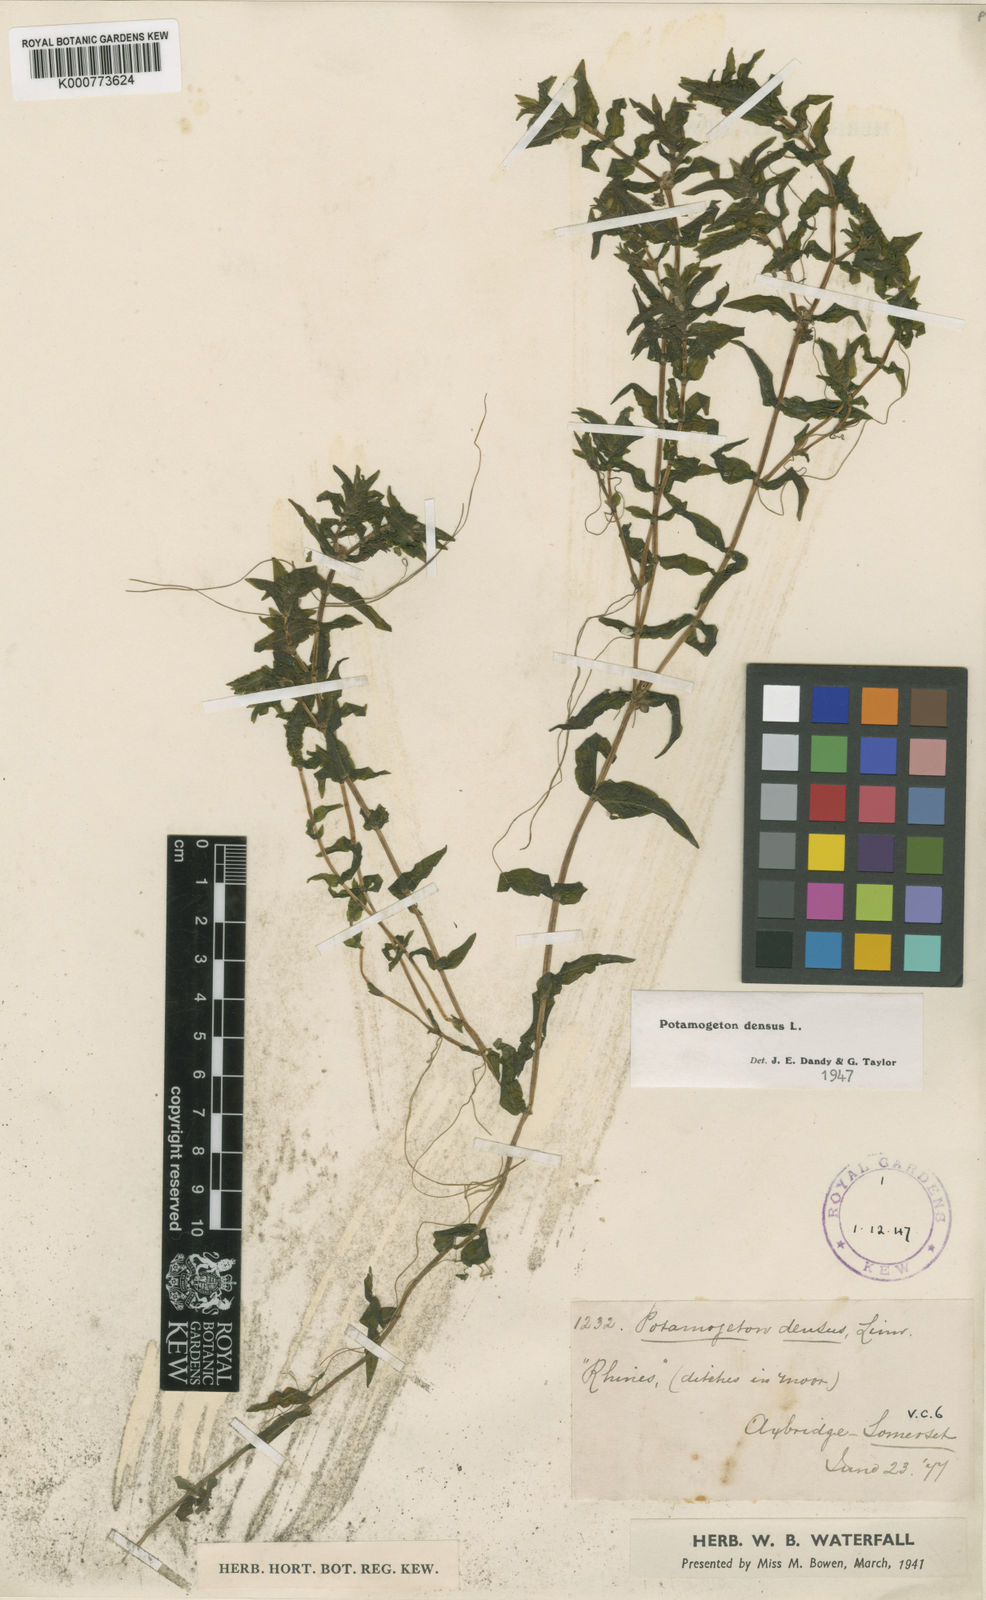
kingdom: Plantae
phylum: Tracheophyta
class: Liliopsida
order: Alismatales
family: Potamogetonaceae
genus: Groenlandia
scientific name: Groenlandia densa
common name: Opposite-leaved pondweed
